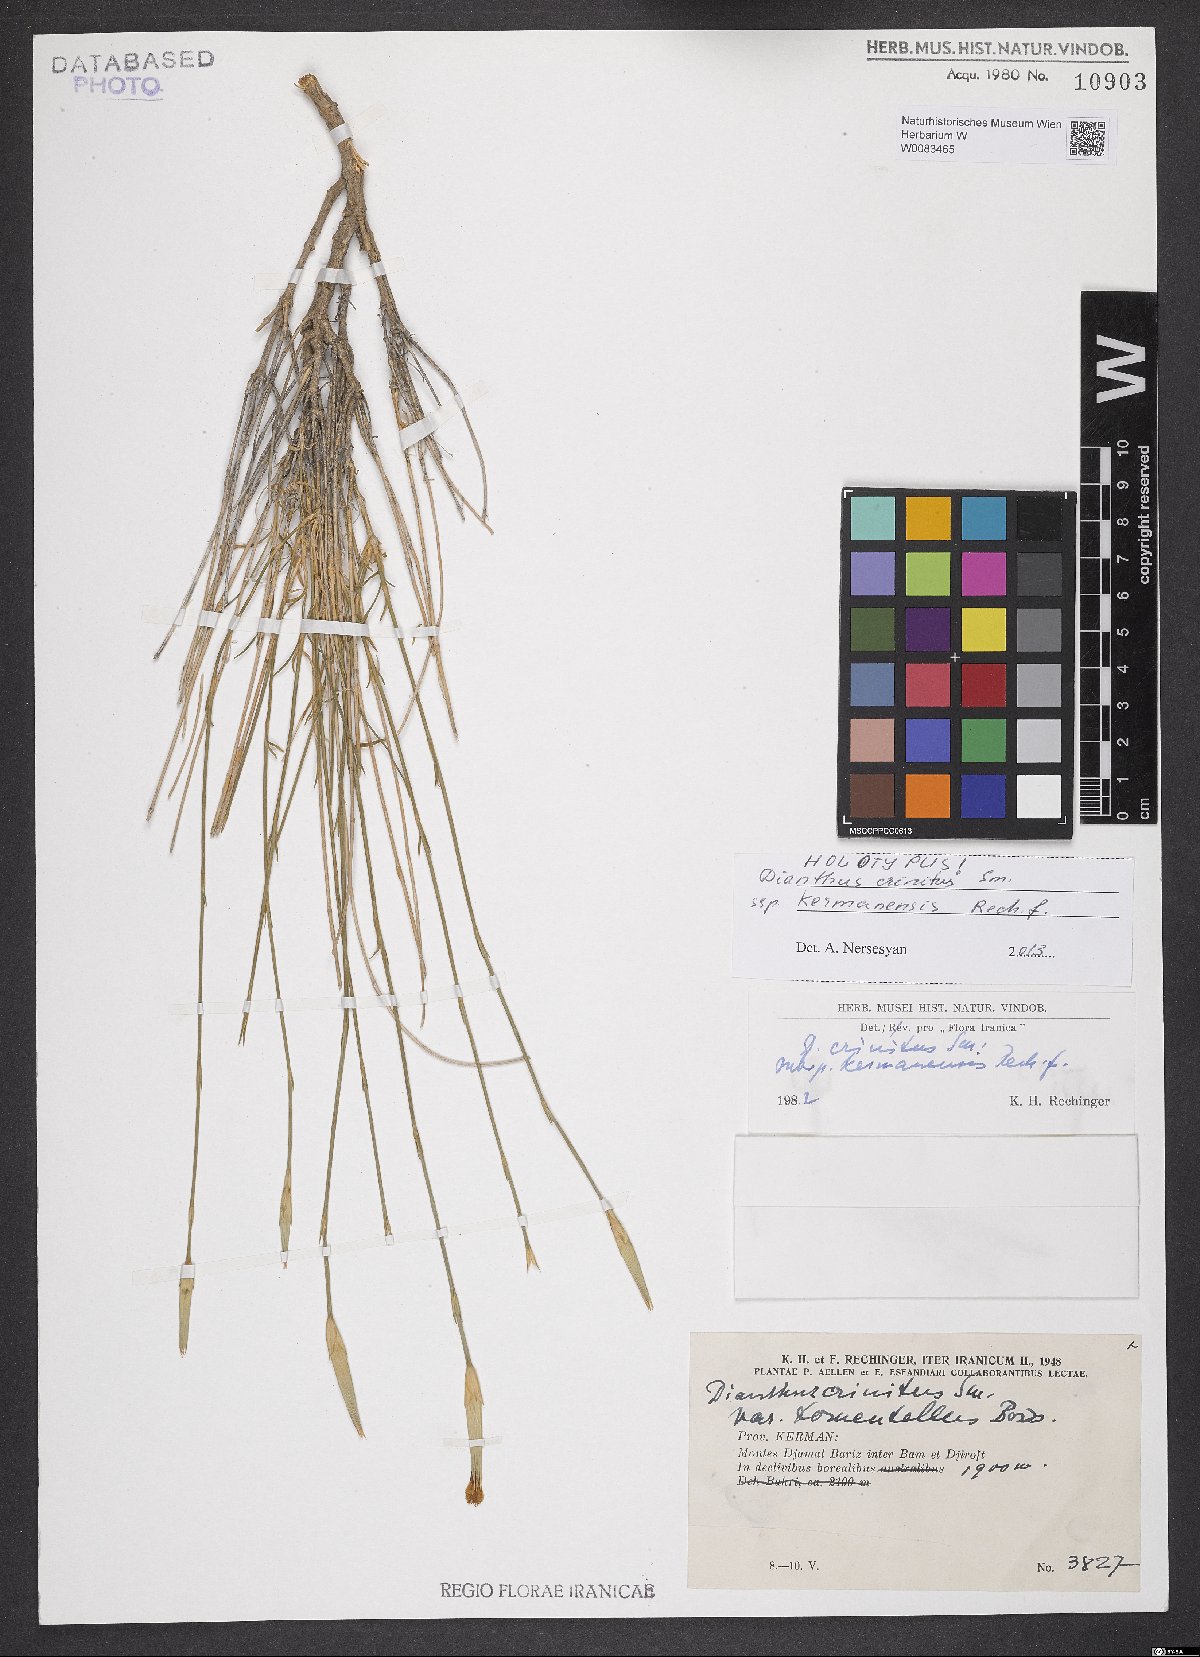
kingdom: Plantae
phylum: Tracheophyta
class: Magnoliopsida
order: Caryophyllales
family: Caryophyllaceae
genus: Dianthus
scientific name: Dianthus crinitus
